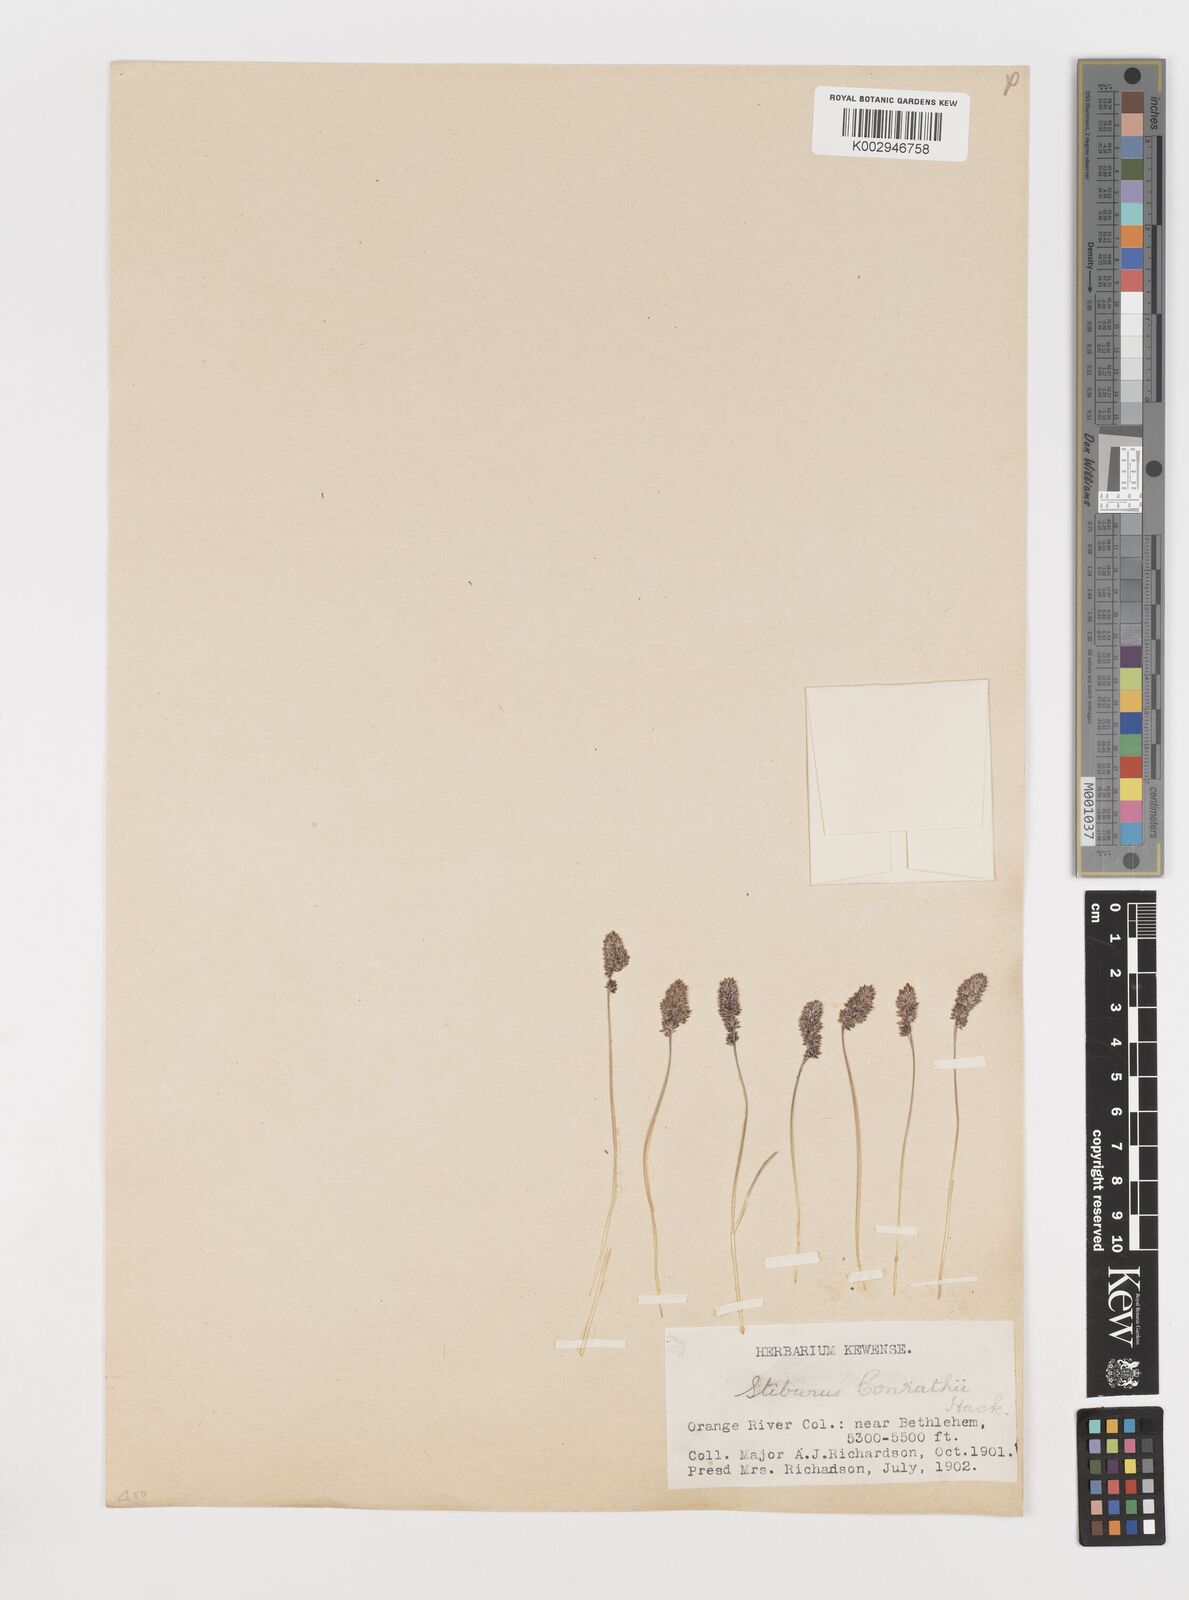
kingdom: Plantae
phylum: Tracheophyta
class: Liliopsida
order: Poales
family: Poaceae
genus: Stiburus
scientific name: Stiburus conrathii
